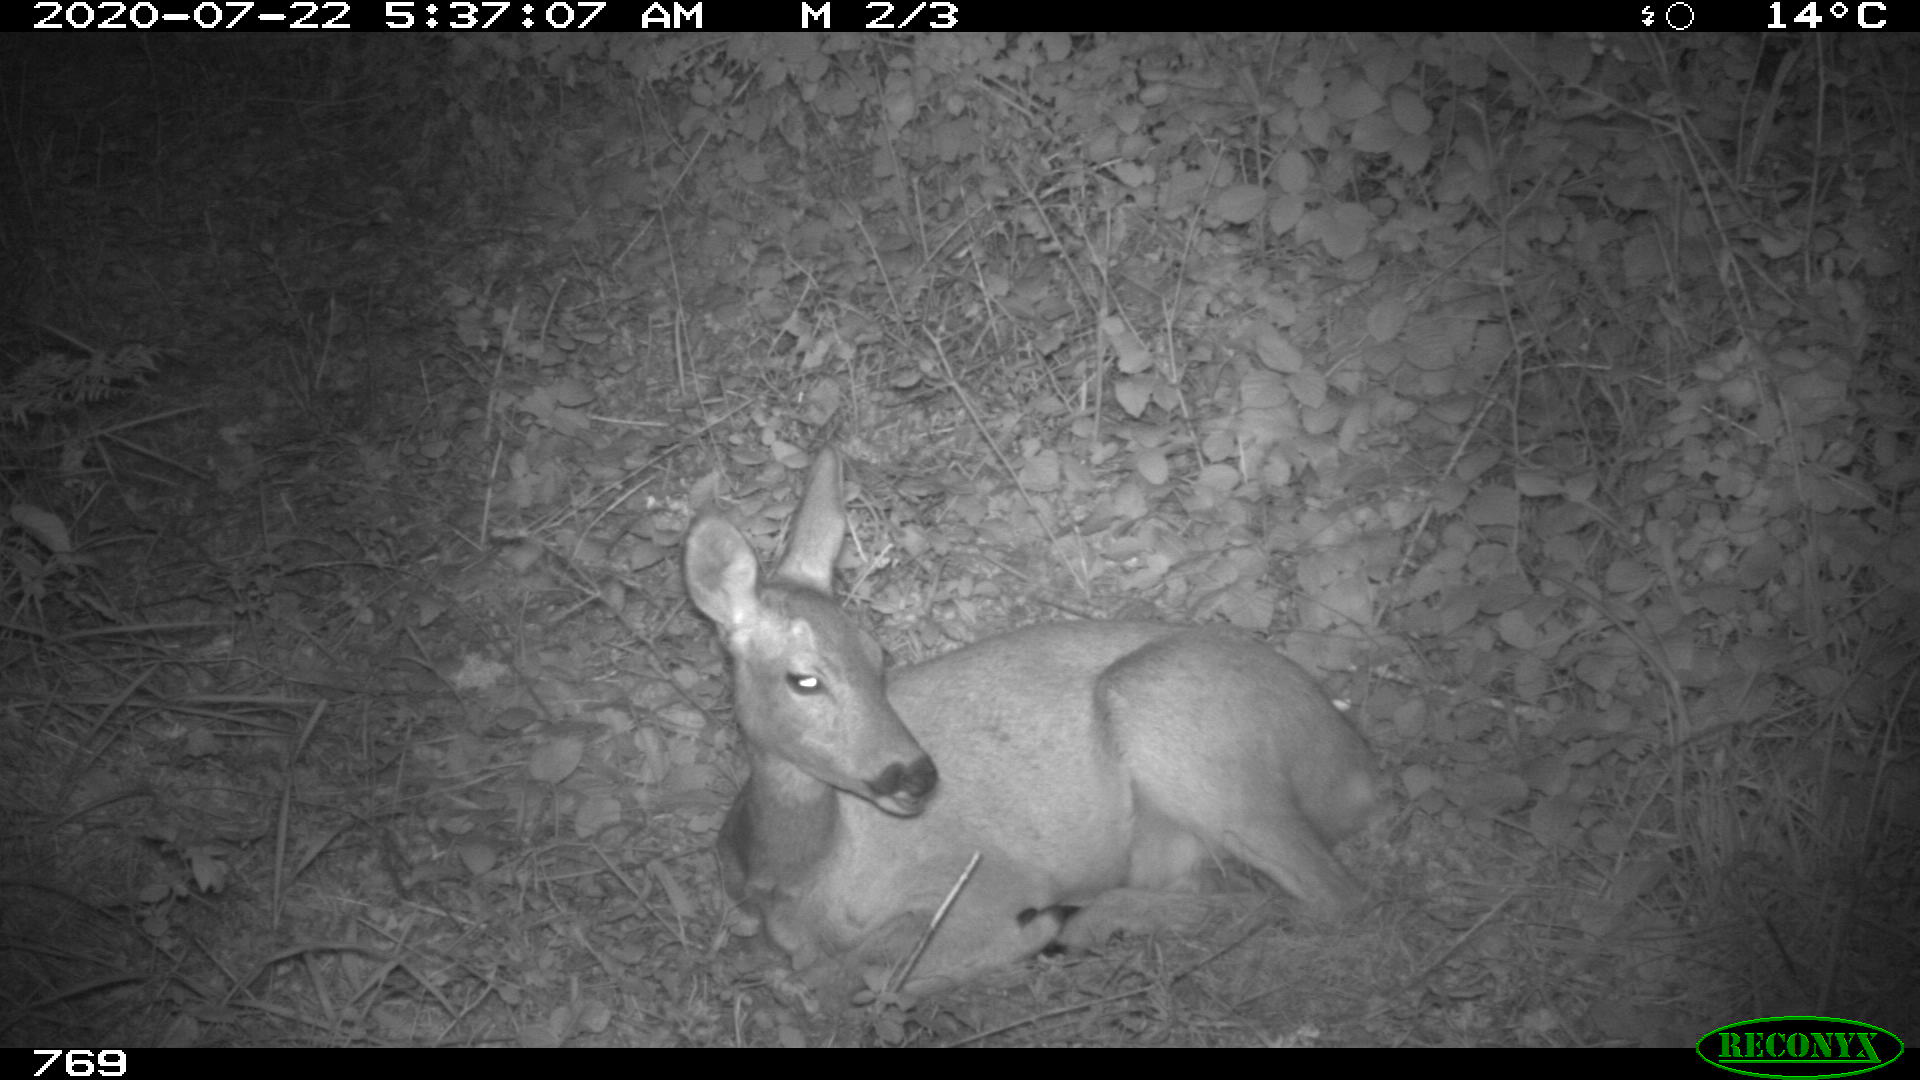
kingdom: Animalia
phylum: Chordata
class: Mammalia
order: Artiodactyla
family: Cervidae
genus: Capreolus
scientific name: Capreolus capreolus
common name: Western roe deer
